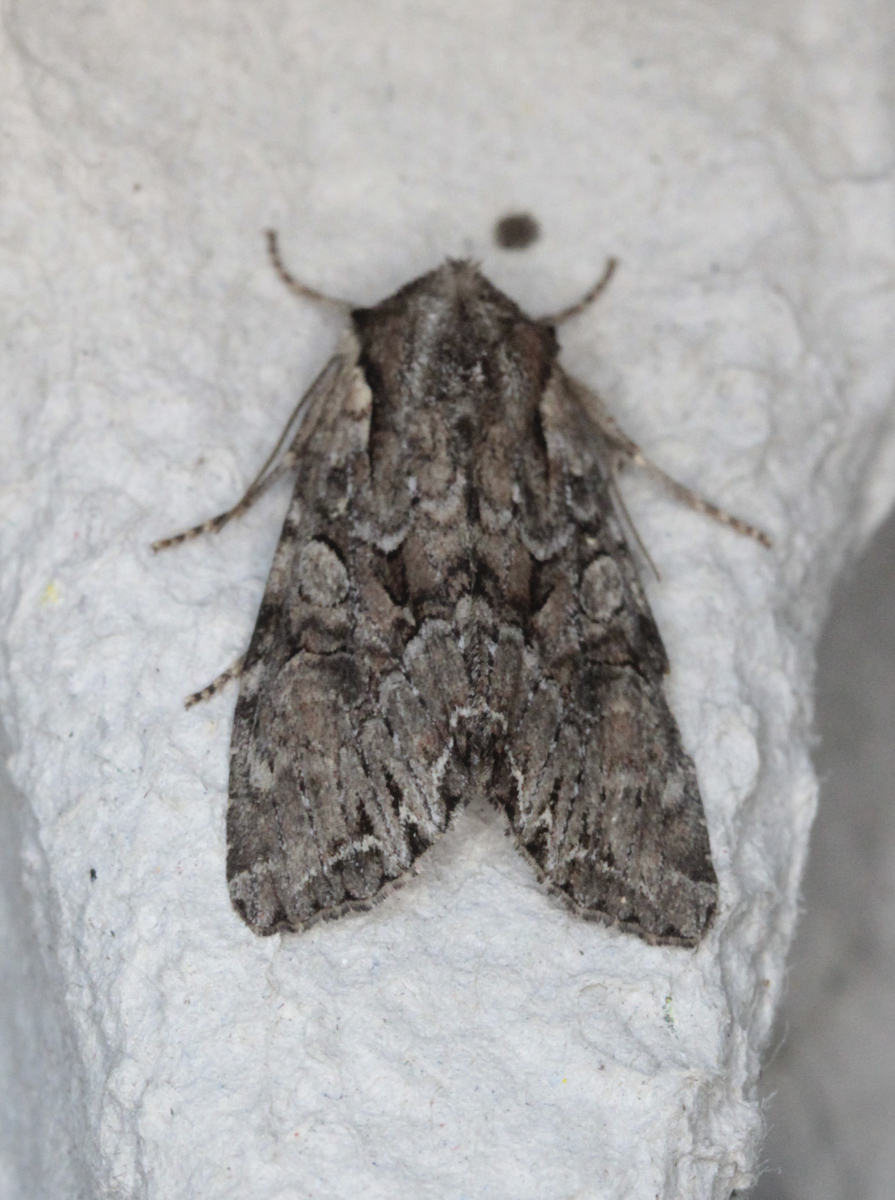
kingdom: Animalia
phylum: Arthropoda
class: Insecta
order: Lepidoptera
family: Noctuidae
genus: Lacanobia
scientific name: Lacanobia thalassina
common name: Pale-shouldered brocade
